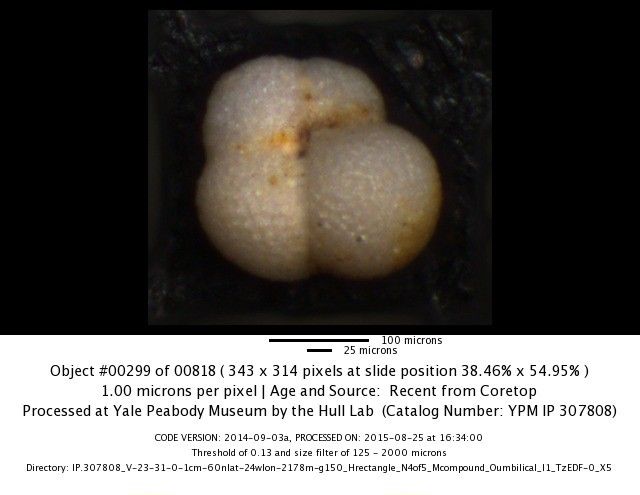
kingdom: Chromista
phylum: Foraminifera
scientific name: Foraminifera
